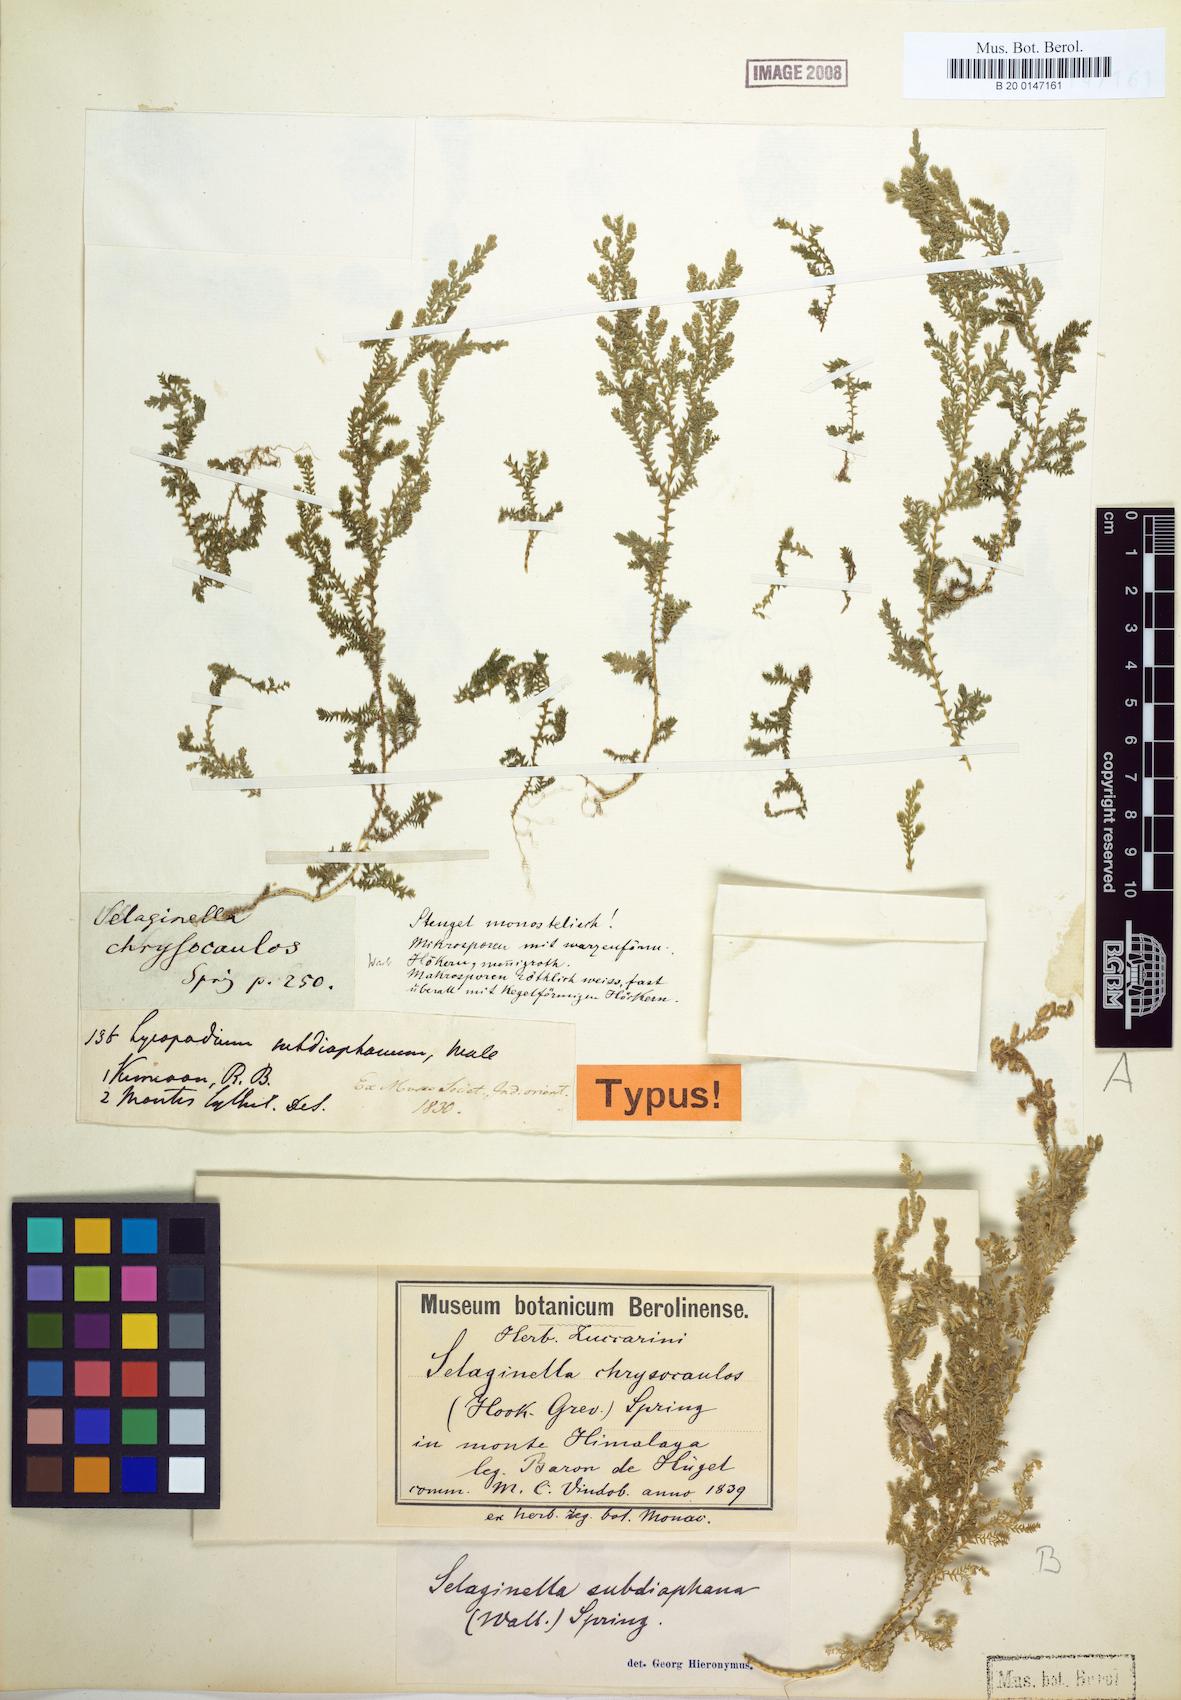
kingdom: Plantae
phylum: Tracheophyta
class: Lycopodiopsida
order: Selaginellales
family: Selaginellaceae
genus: Selaginella
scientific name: Selaginella subdiaphana
